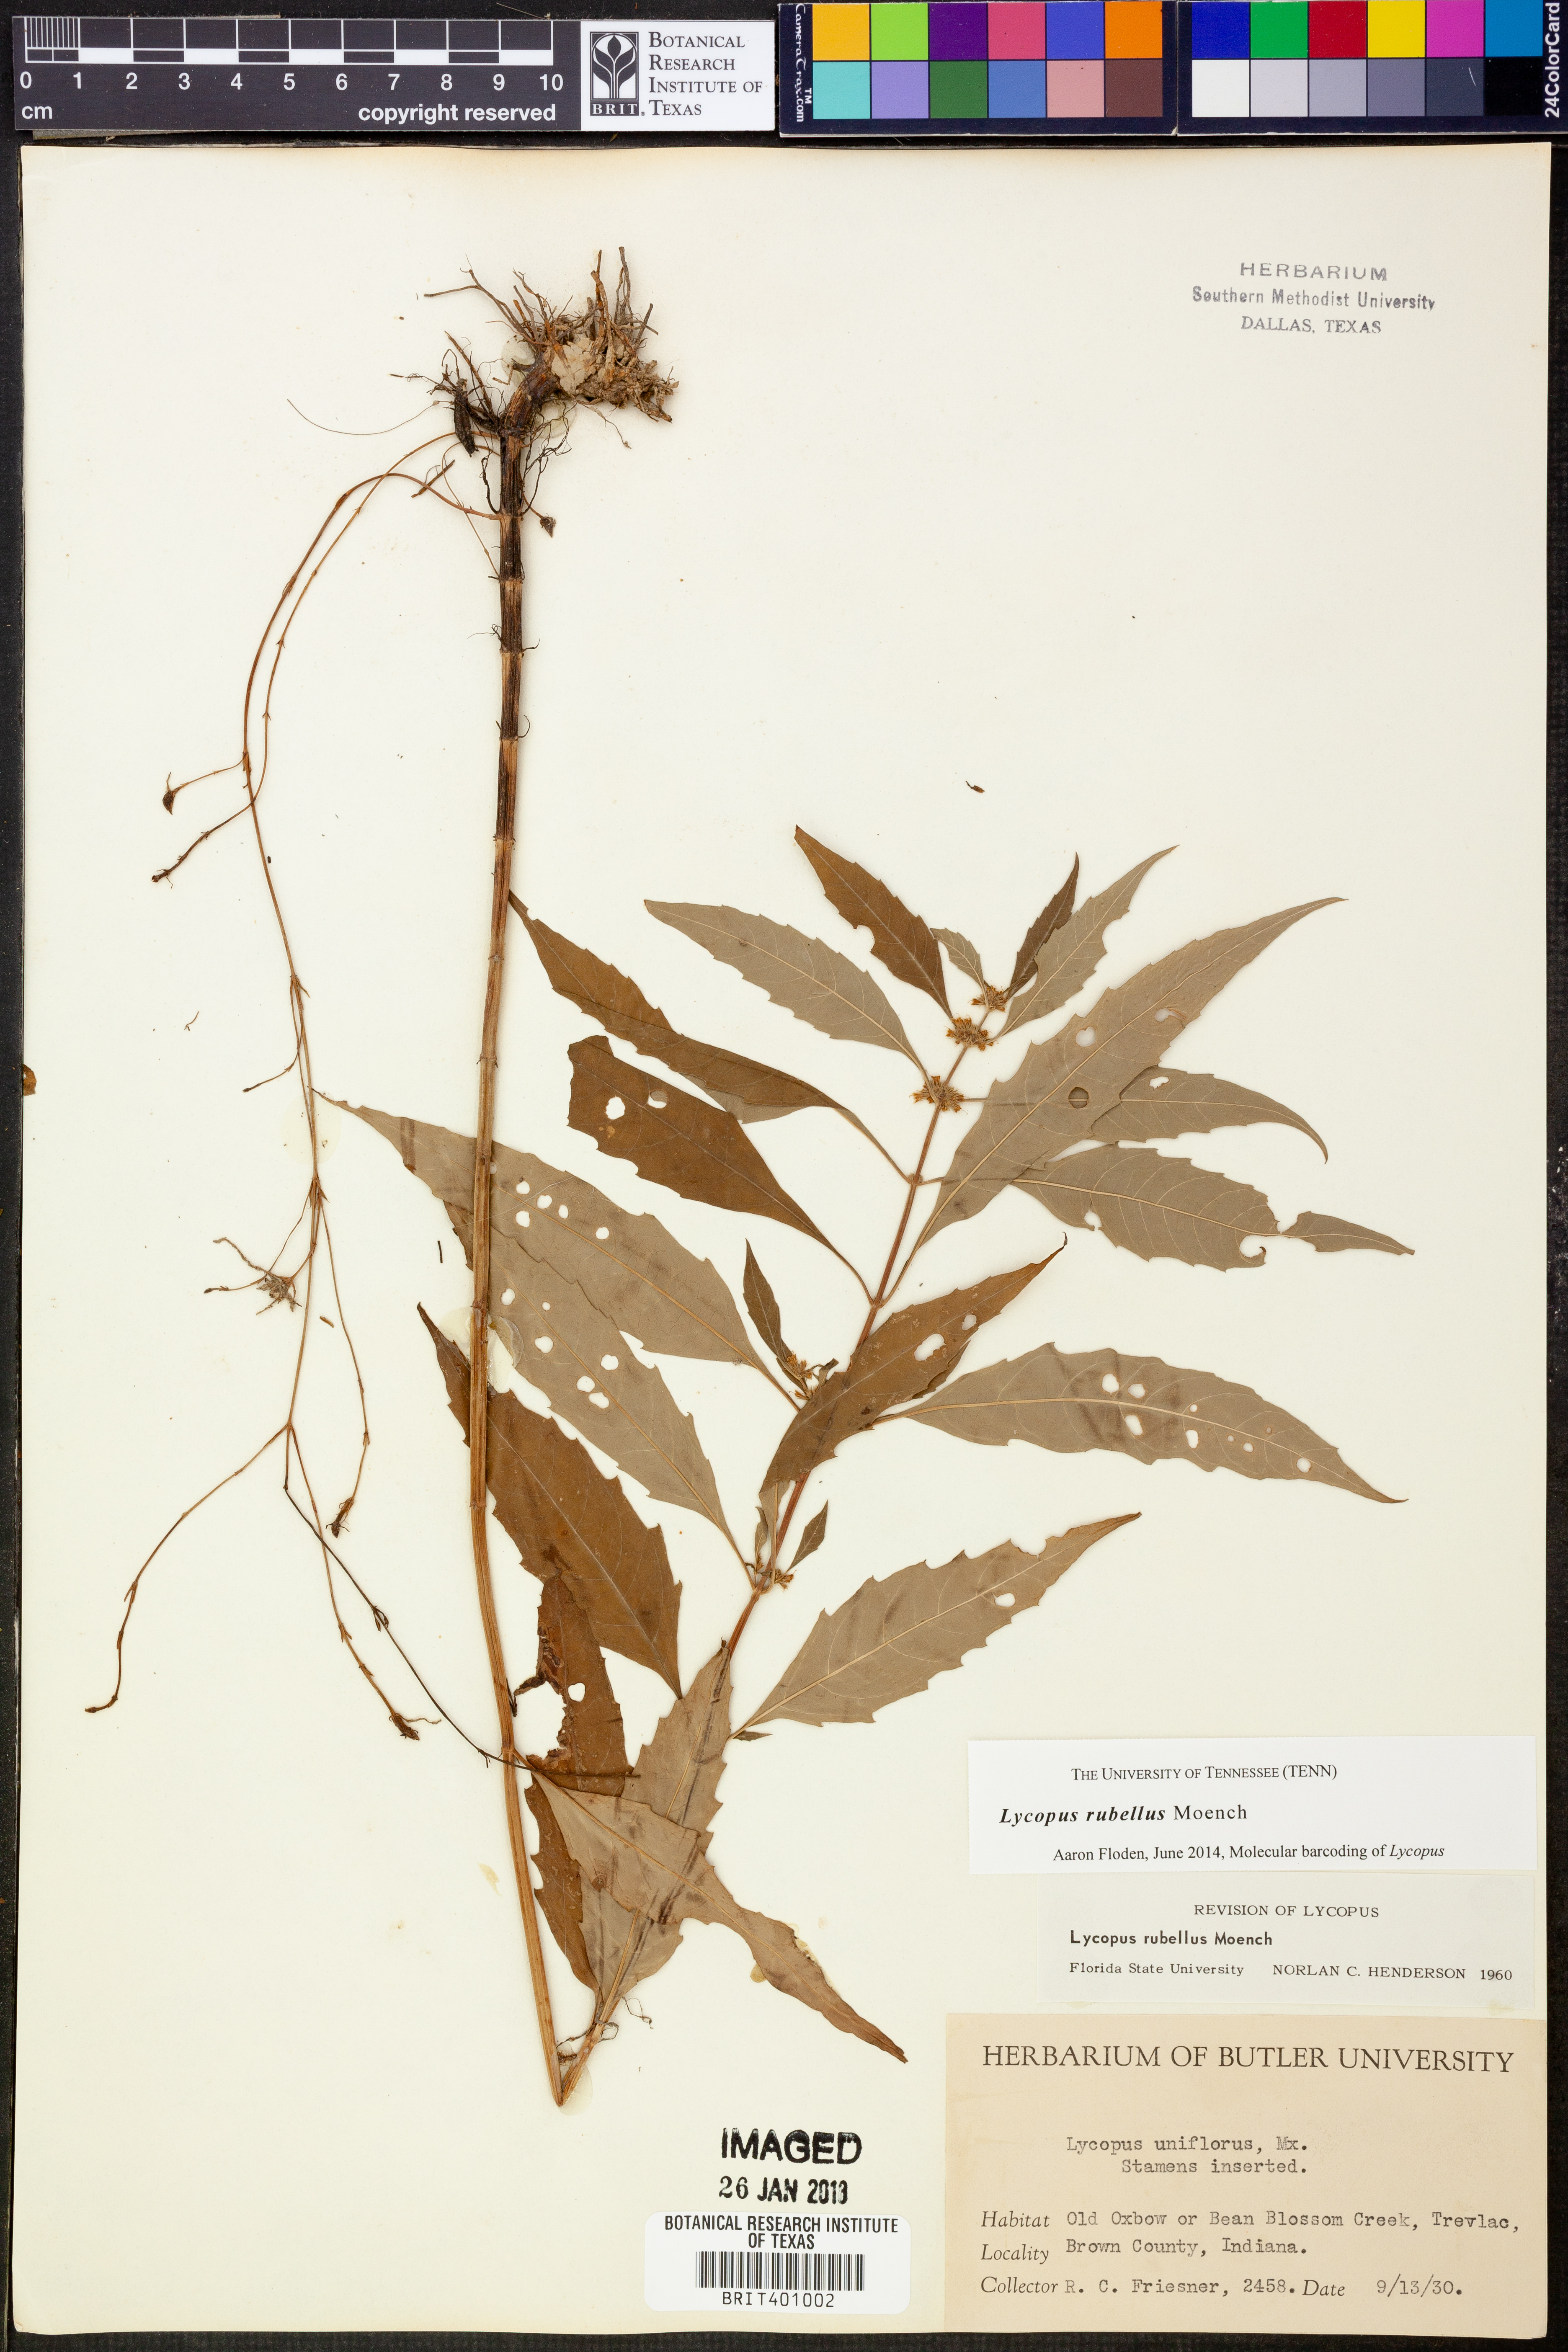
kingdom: Plantae
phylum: Tracheophyta
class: Magnoliopsida
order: Lamiales
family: Lamiaceae
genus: Lycopus
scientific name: Lycopus rubellus
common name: Stalked bugleweed
